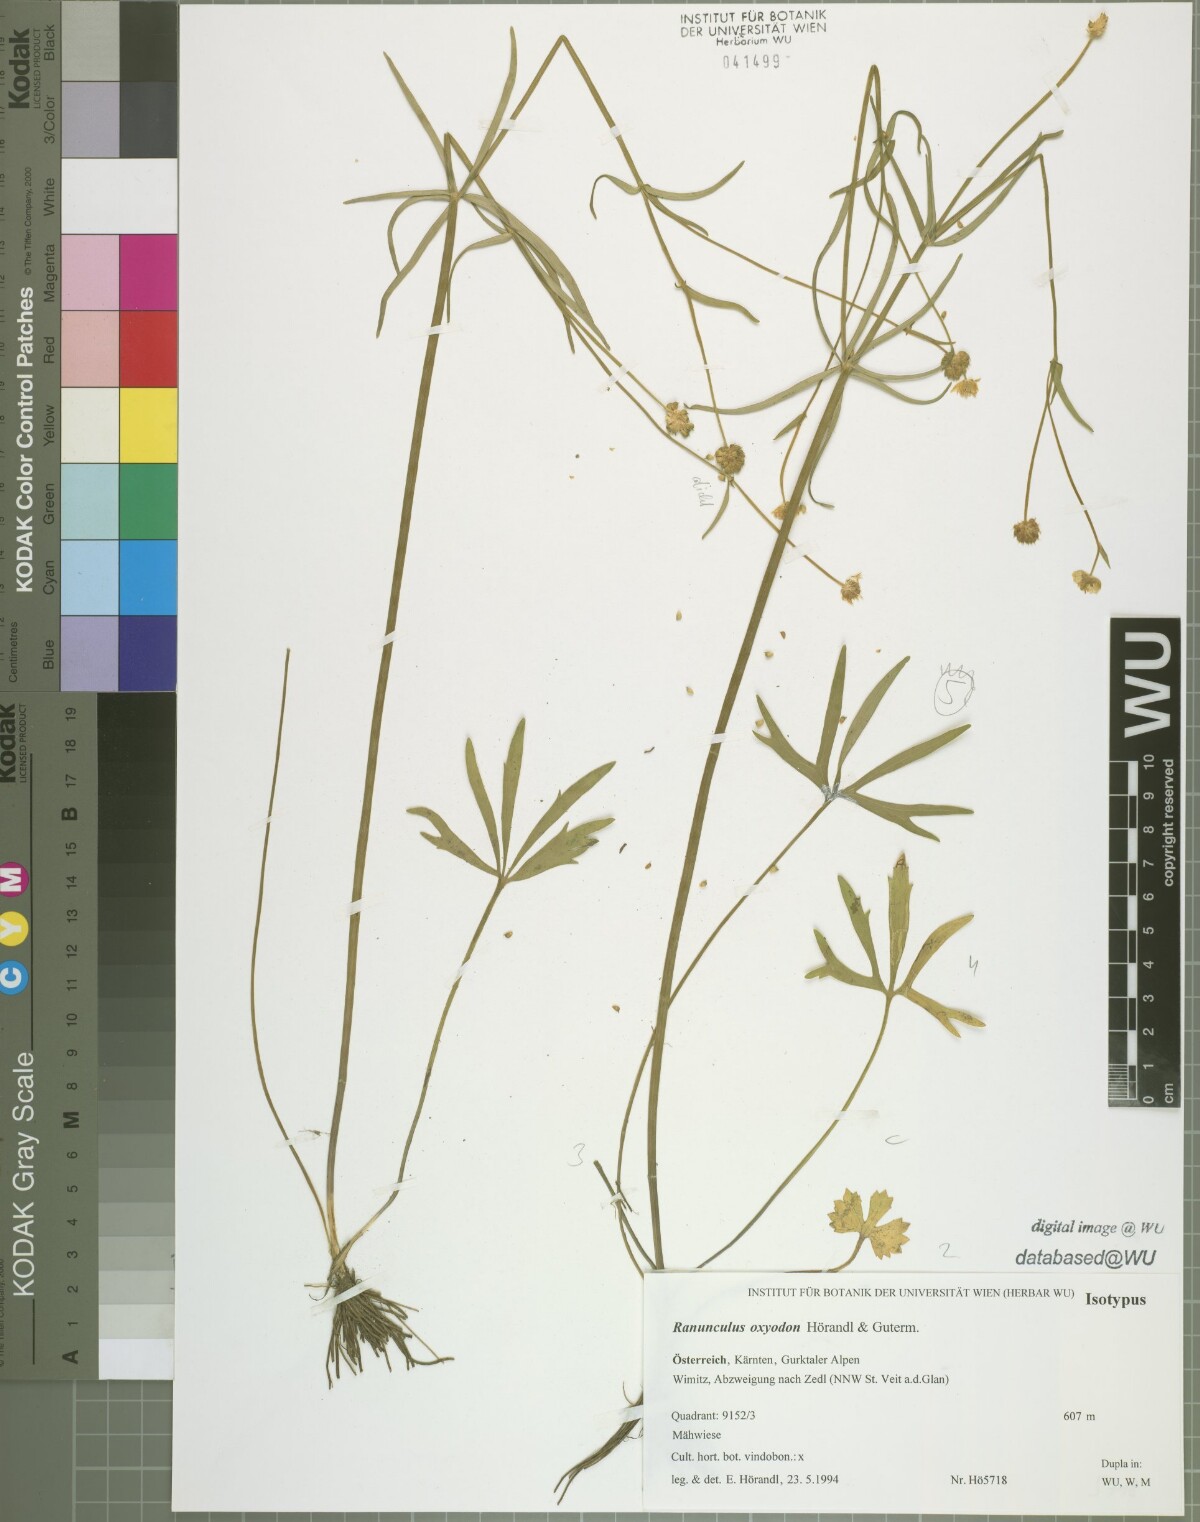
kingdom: Plantae
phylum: Tracheophyta
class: Magnoliopsida
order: Ranunculales
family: Ranunculaceae
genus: Ranunculus
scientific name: Ranunculus oxyodon
